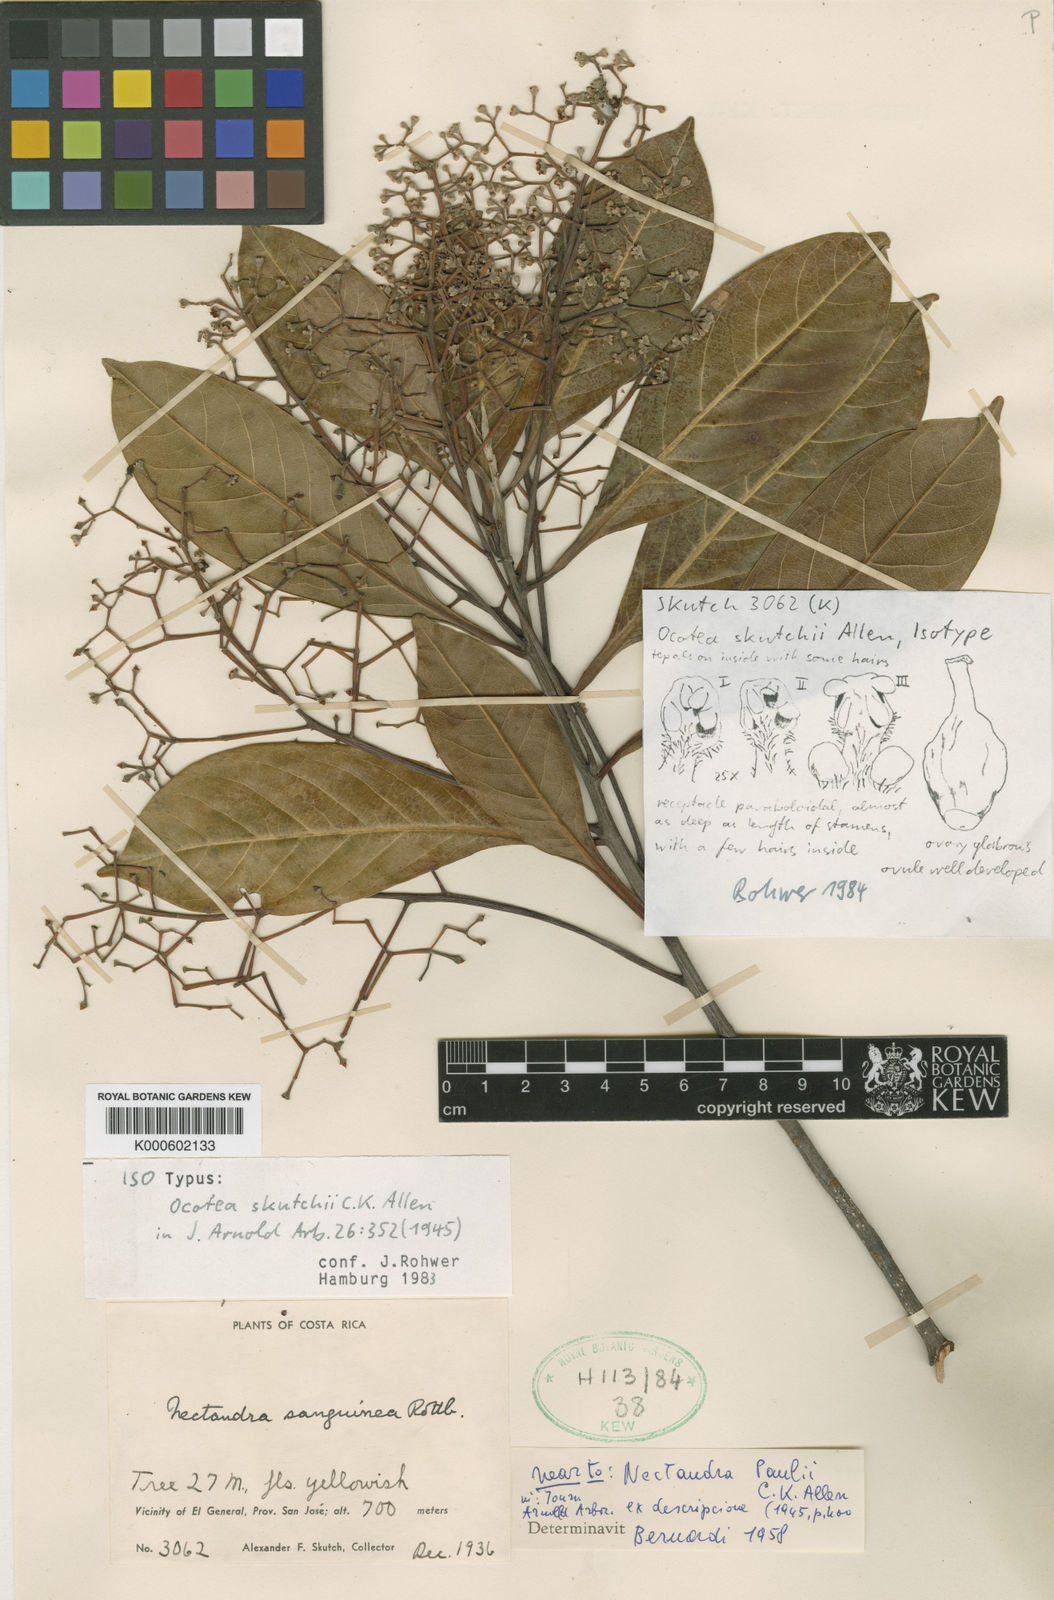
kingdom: Plantae
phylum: Tracheophyta
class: Magnoliopsida
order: Laurales
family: Lauraceae
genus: Ocotea
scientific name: Ocotea whitei
